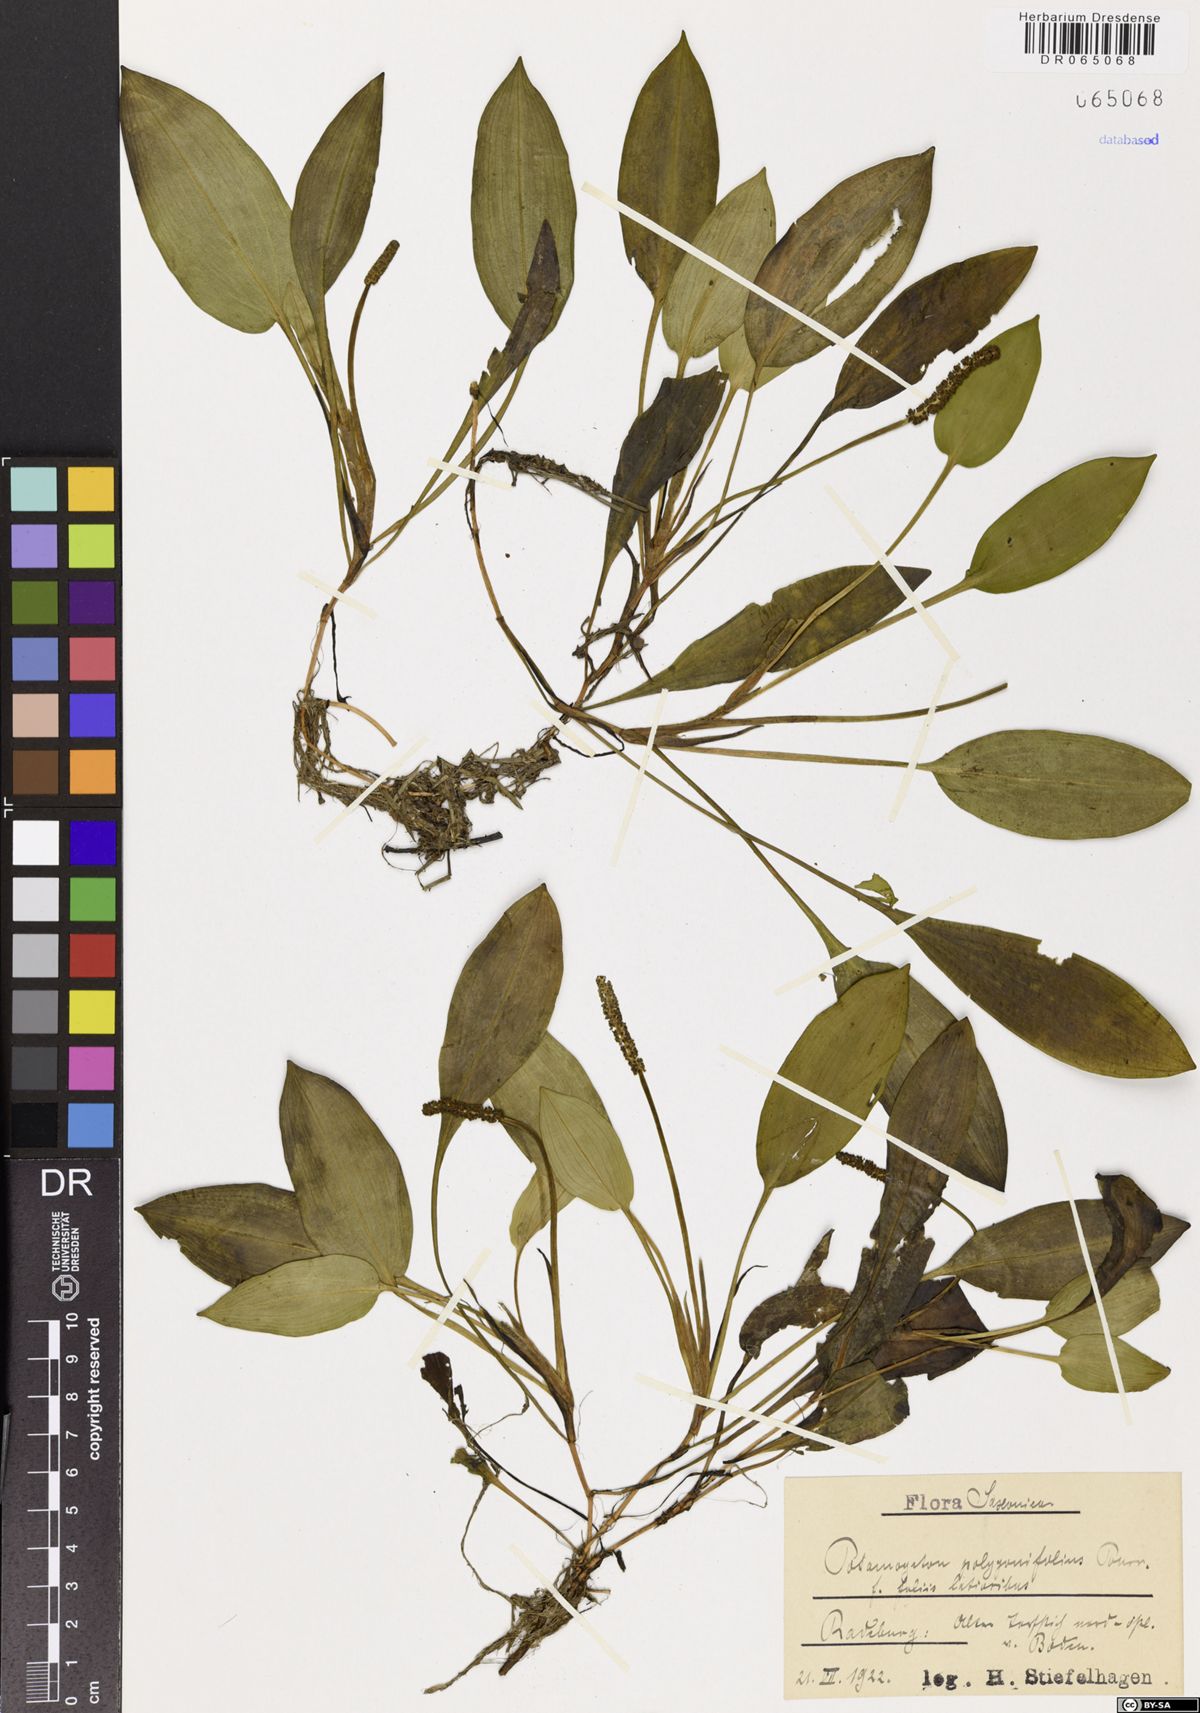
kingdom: Plantae
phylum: Tracheophyta
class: Liliopsida
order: Alismatales
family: Potamogetonaceae
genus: Potamogeton
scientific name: Potamogeton polygonifolius
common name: Bog pondweed
